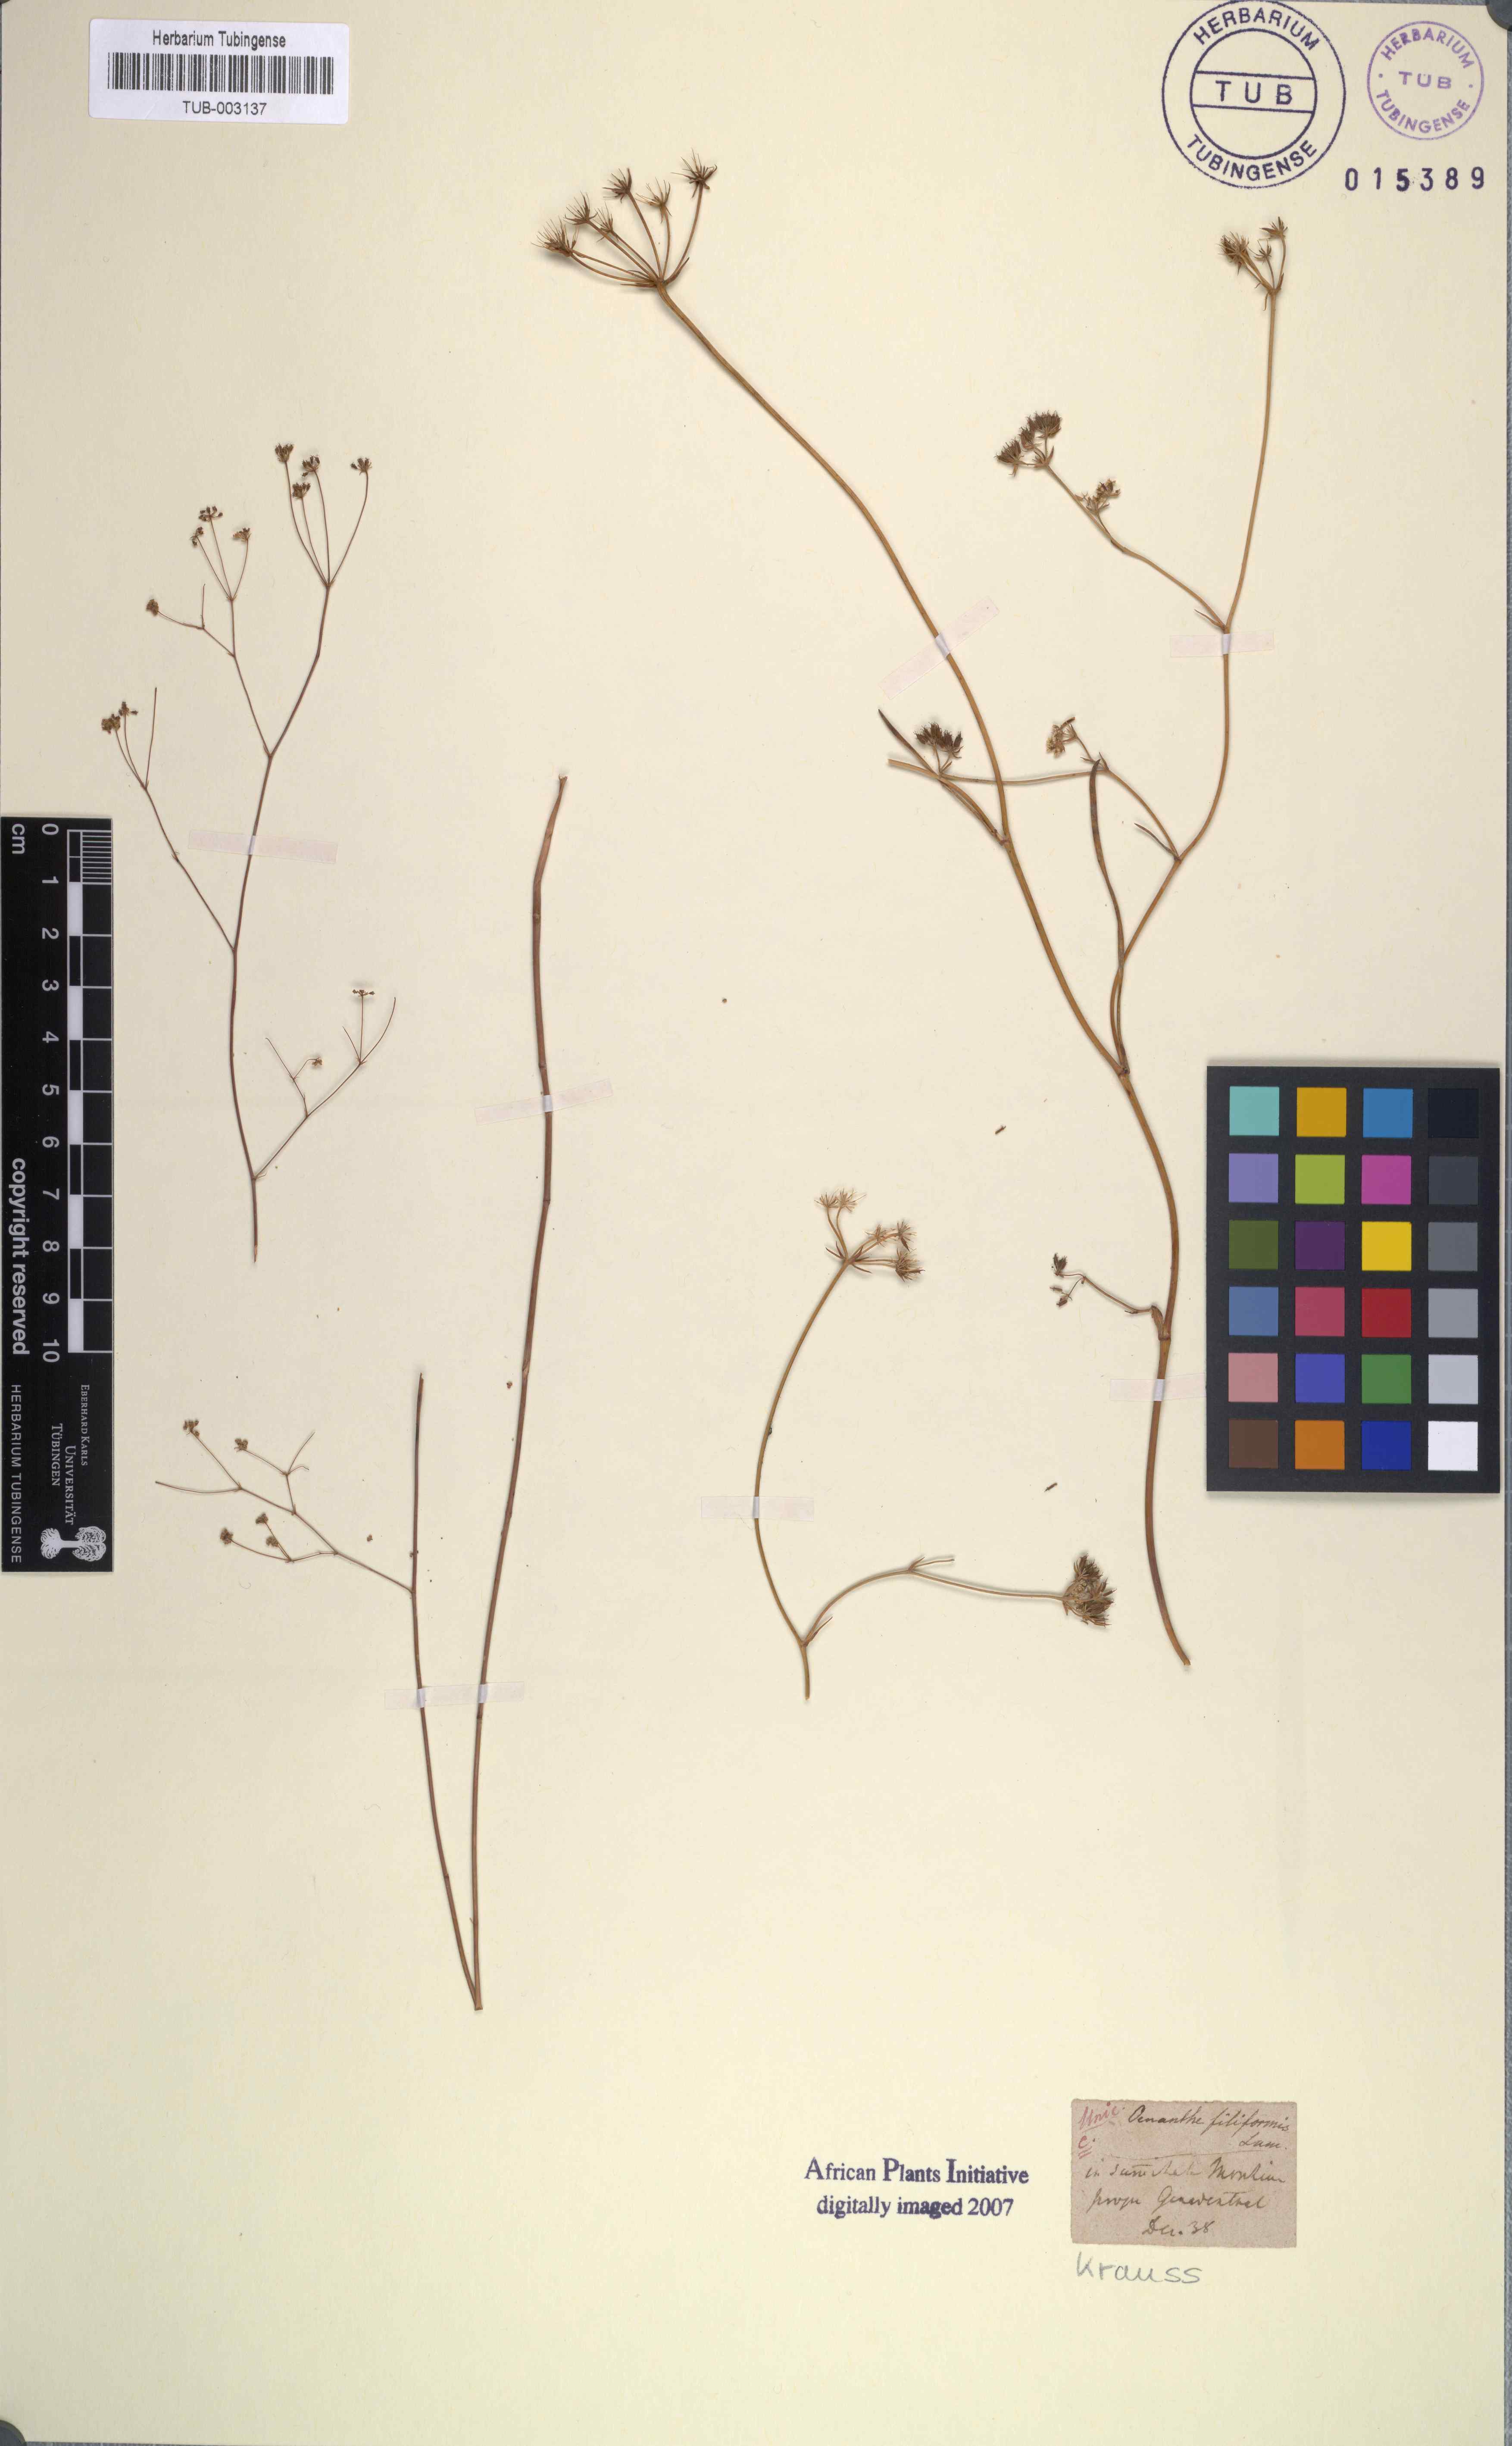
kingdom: Plantae
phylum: Tracheophyta
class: Magnoliopsida
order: Apiales
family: Apiaceae
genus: Itasina
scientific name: Itasina filifolia
